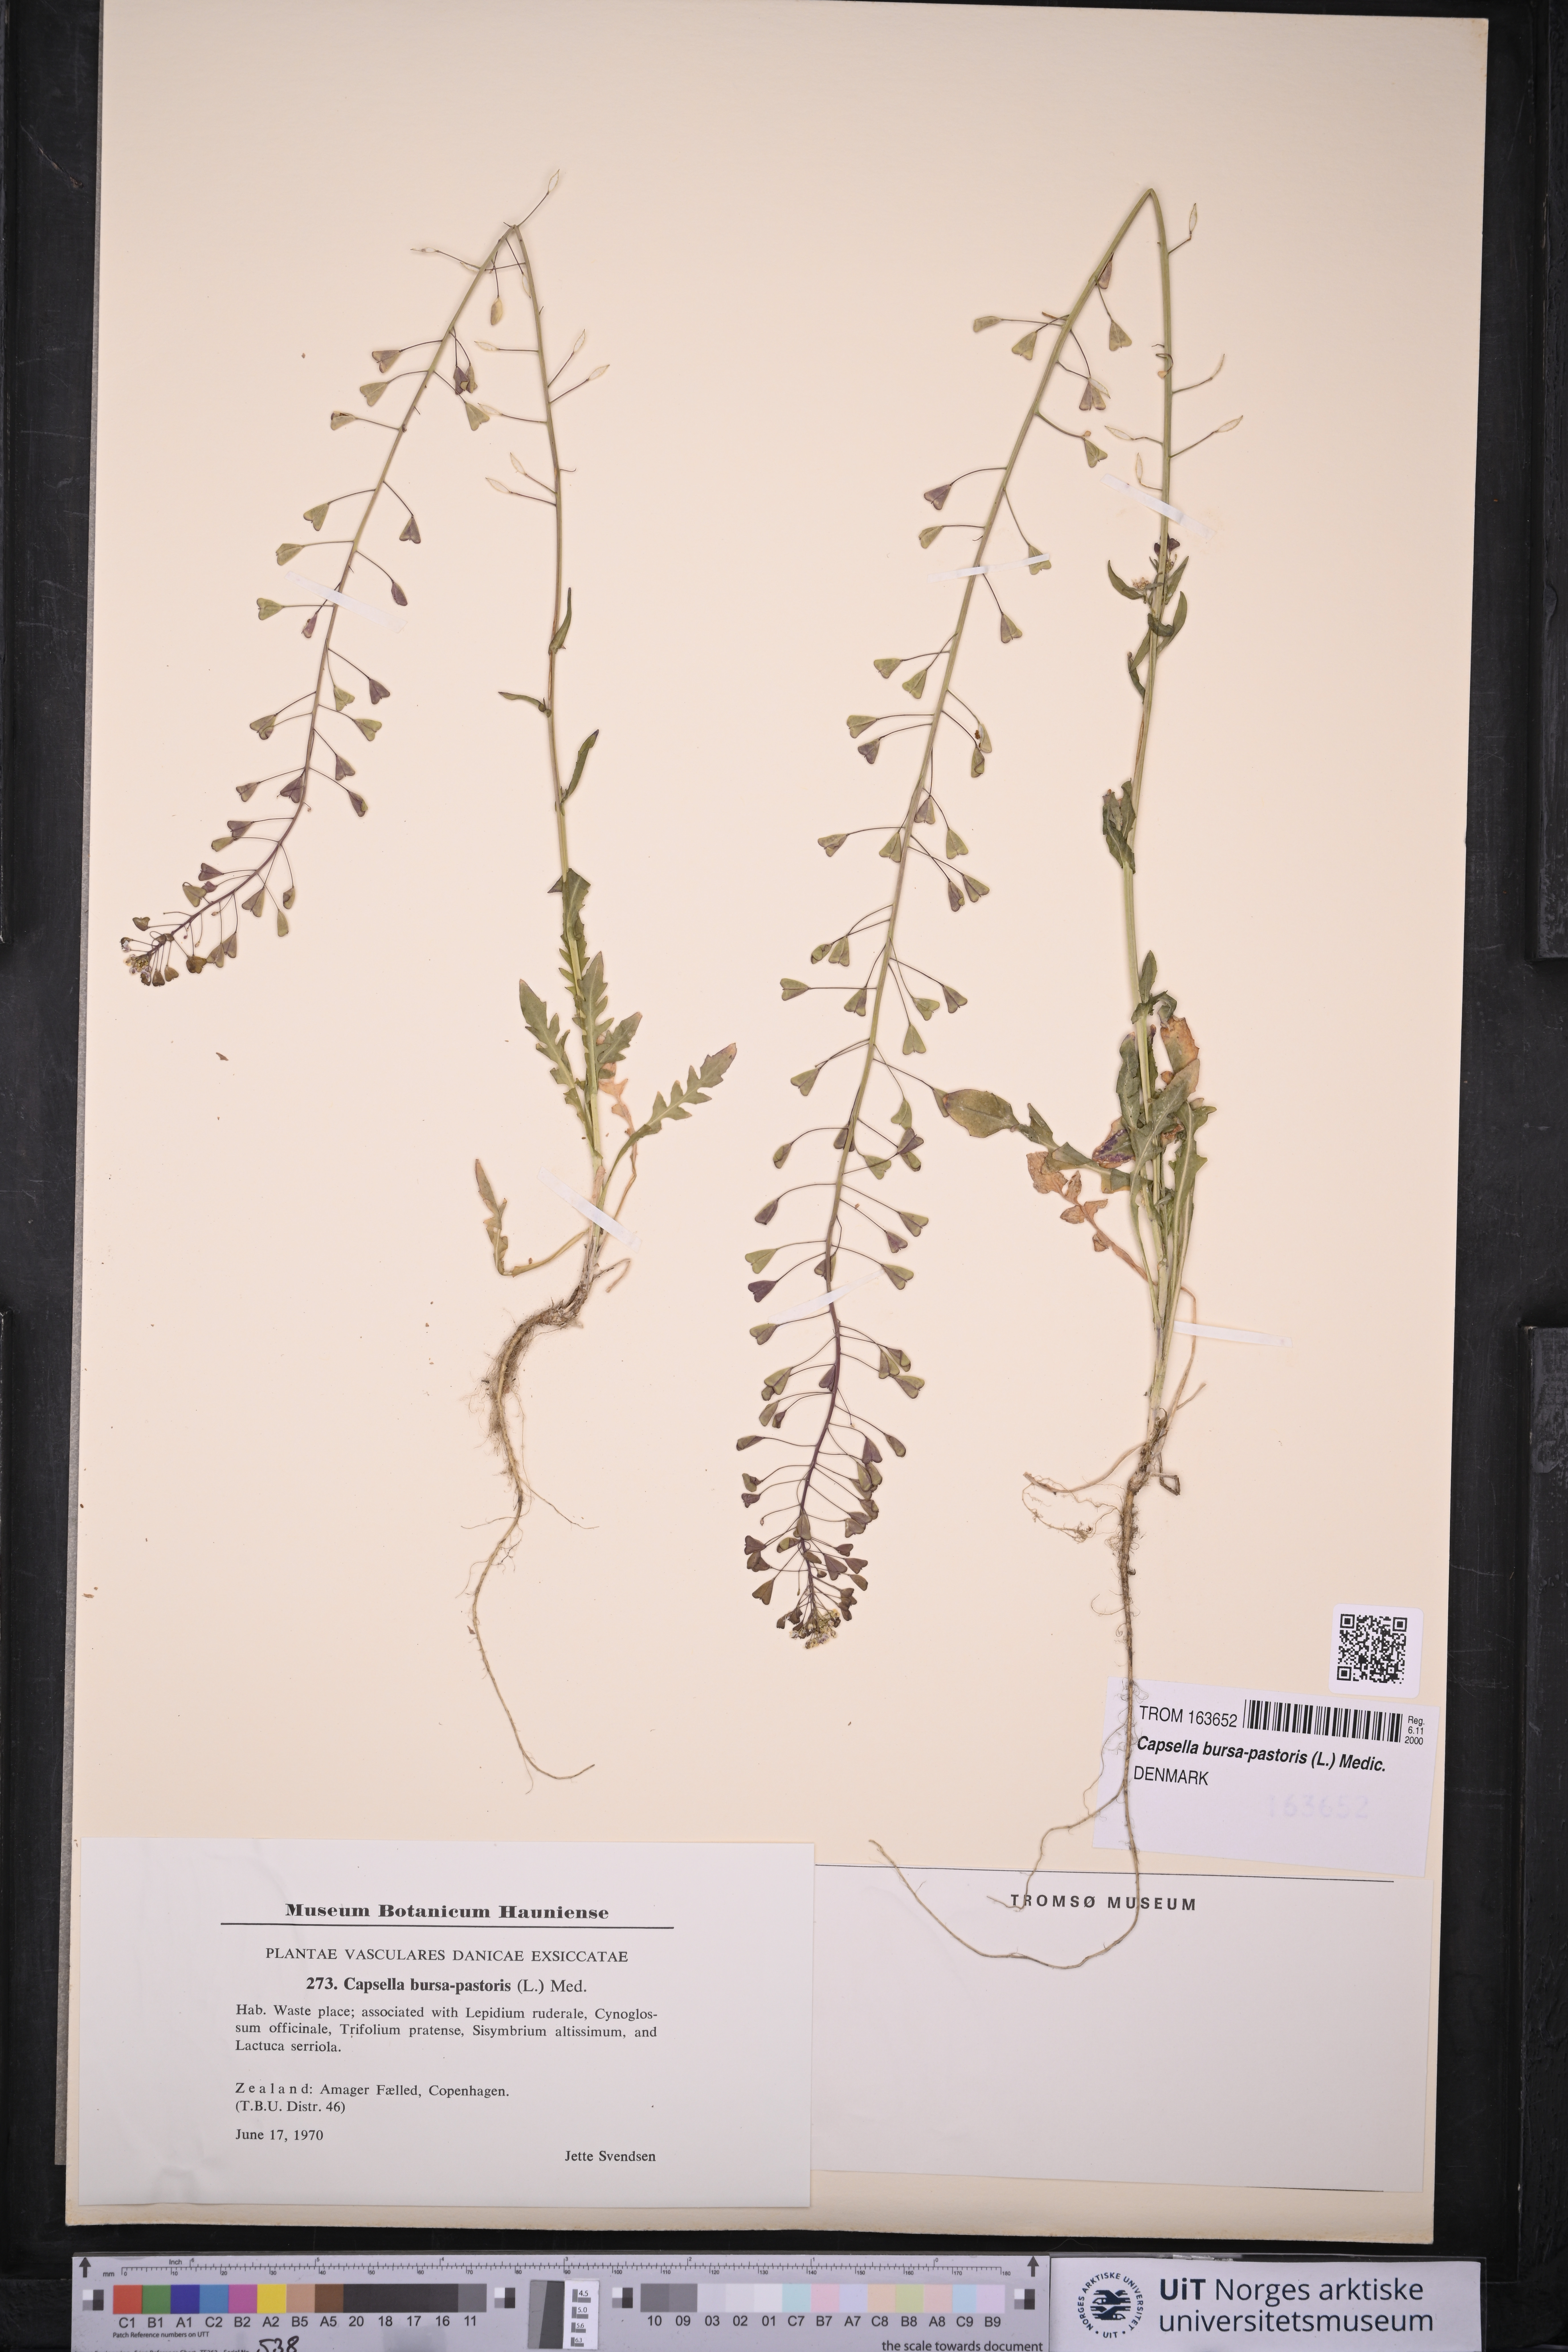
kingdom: Plantae
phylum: Tracheophyta
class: Magnoliopsida
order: Brassicales
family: Brassicaceae
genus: Capsella
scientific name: Capsella bursa-pastoris
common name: Shepherd's purse
